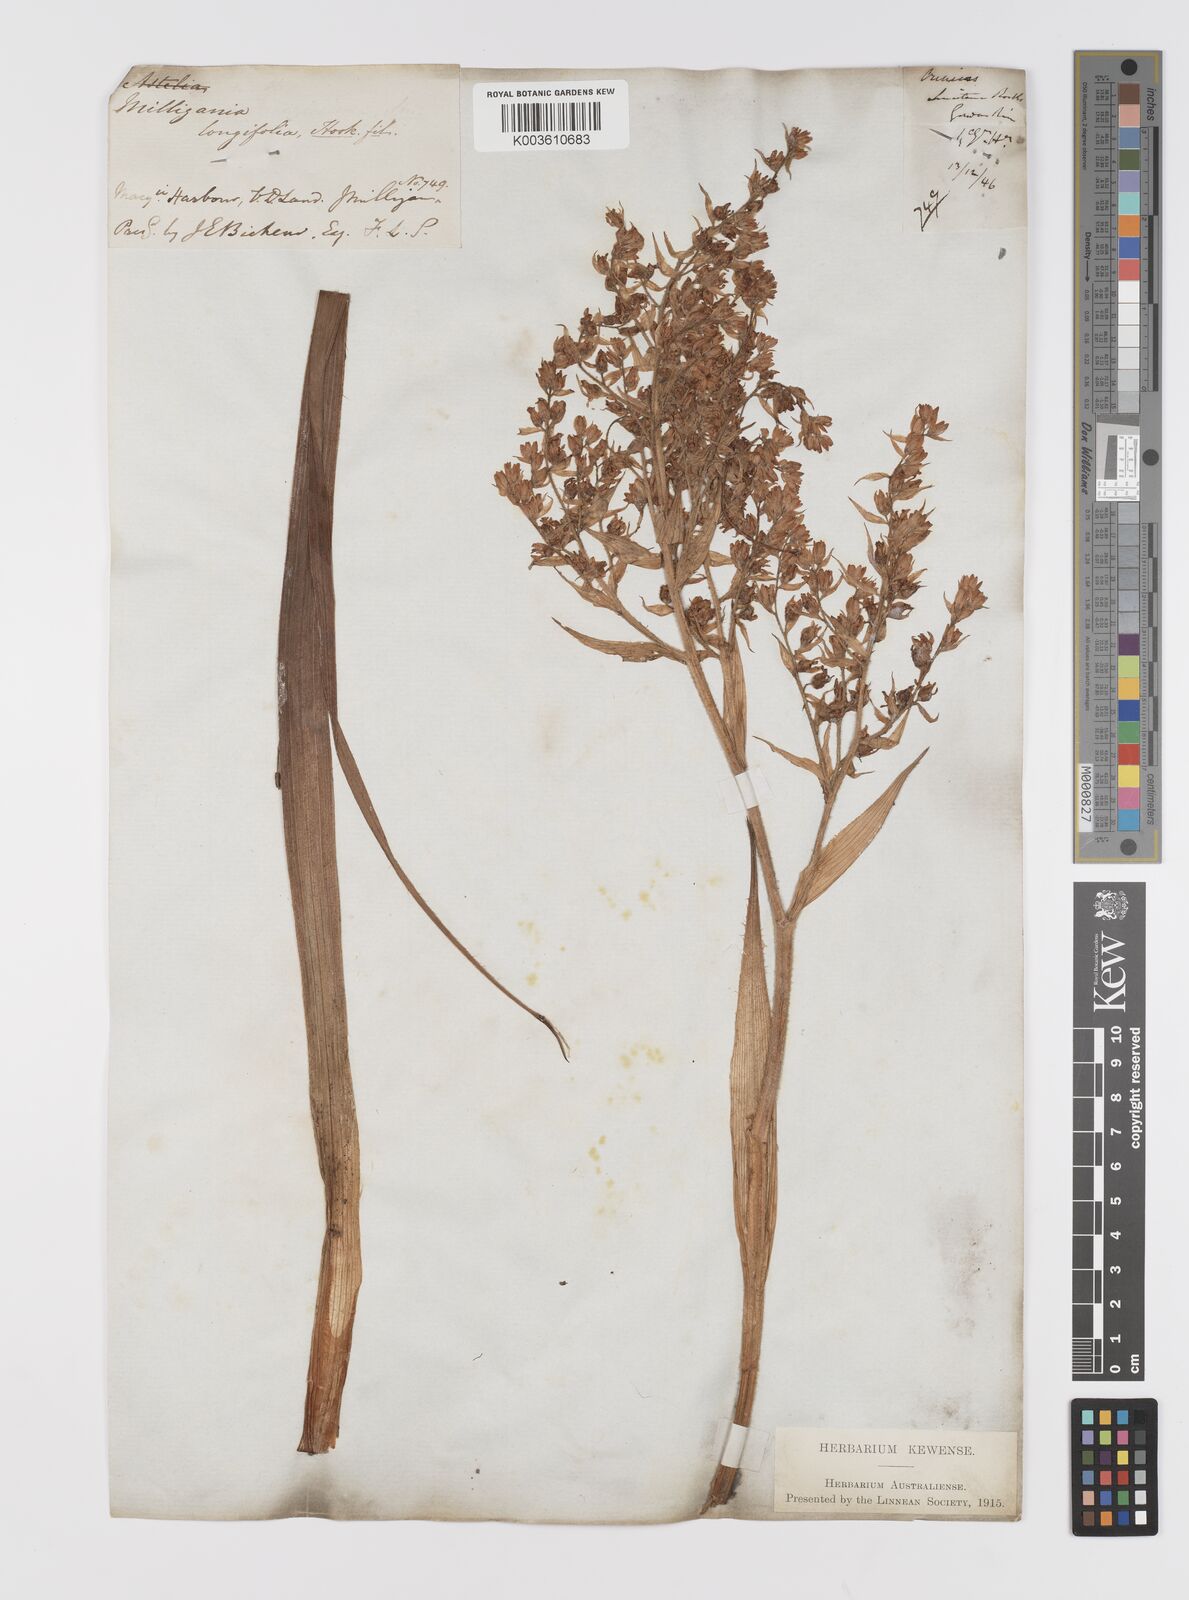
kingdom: Plantae
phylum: Tracheophyta
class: Liliopsida
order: Asparagales
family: Asteliaceae
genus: Milligania
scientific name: Milligania longifolia
